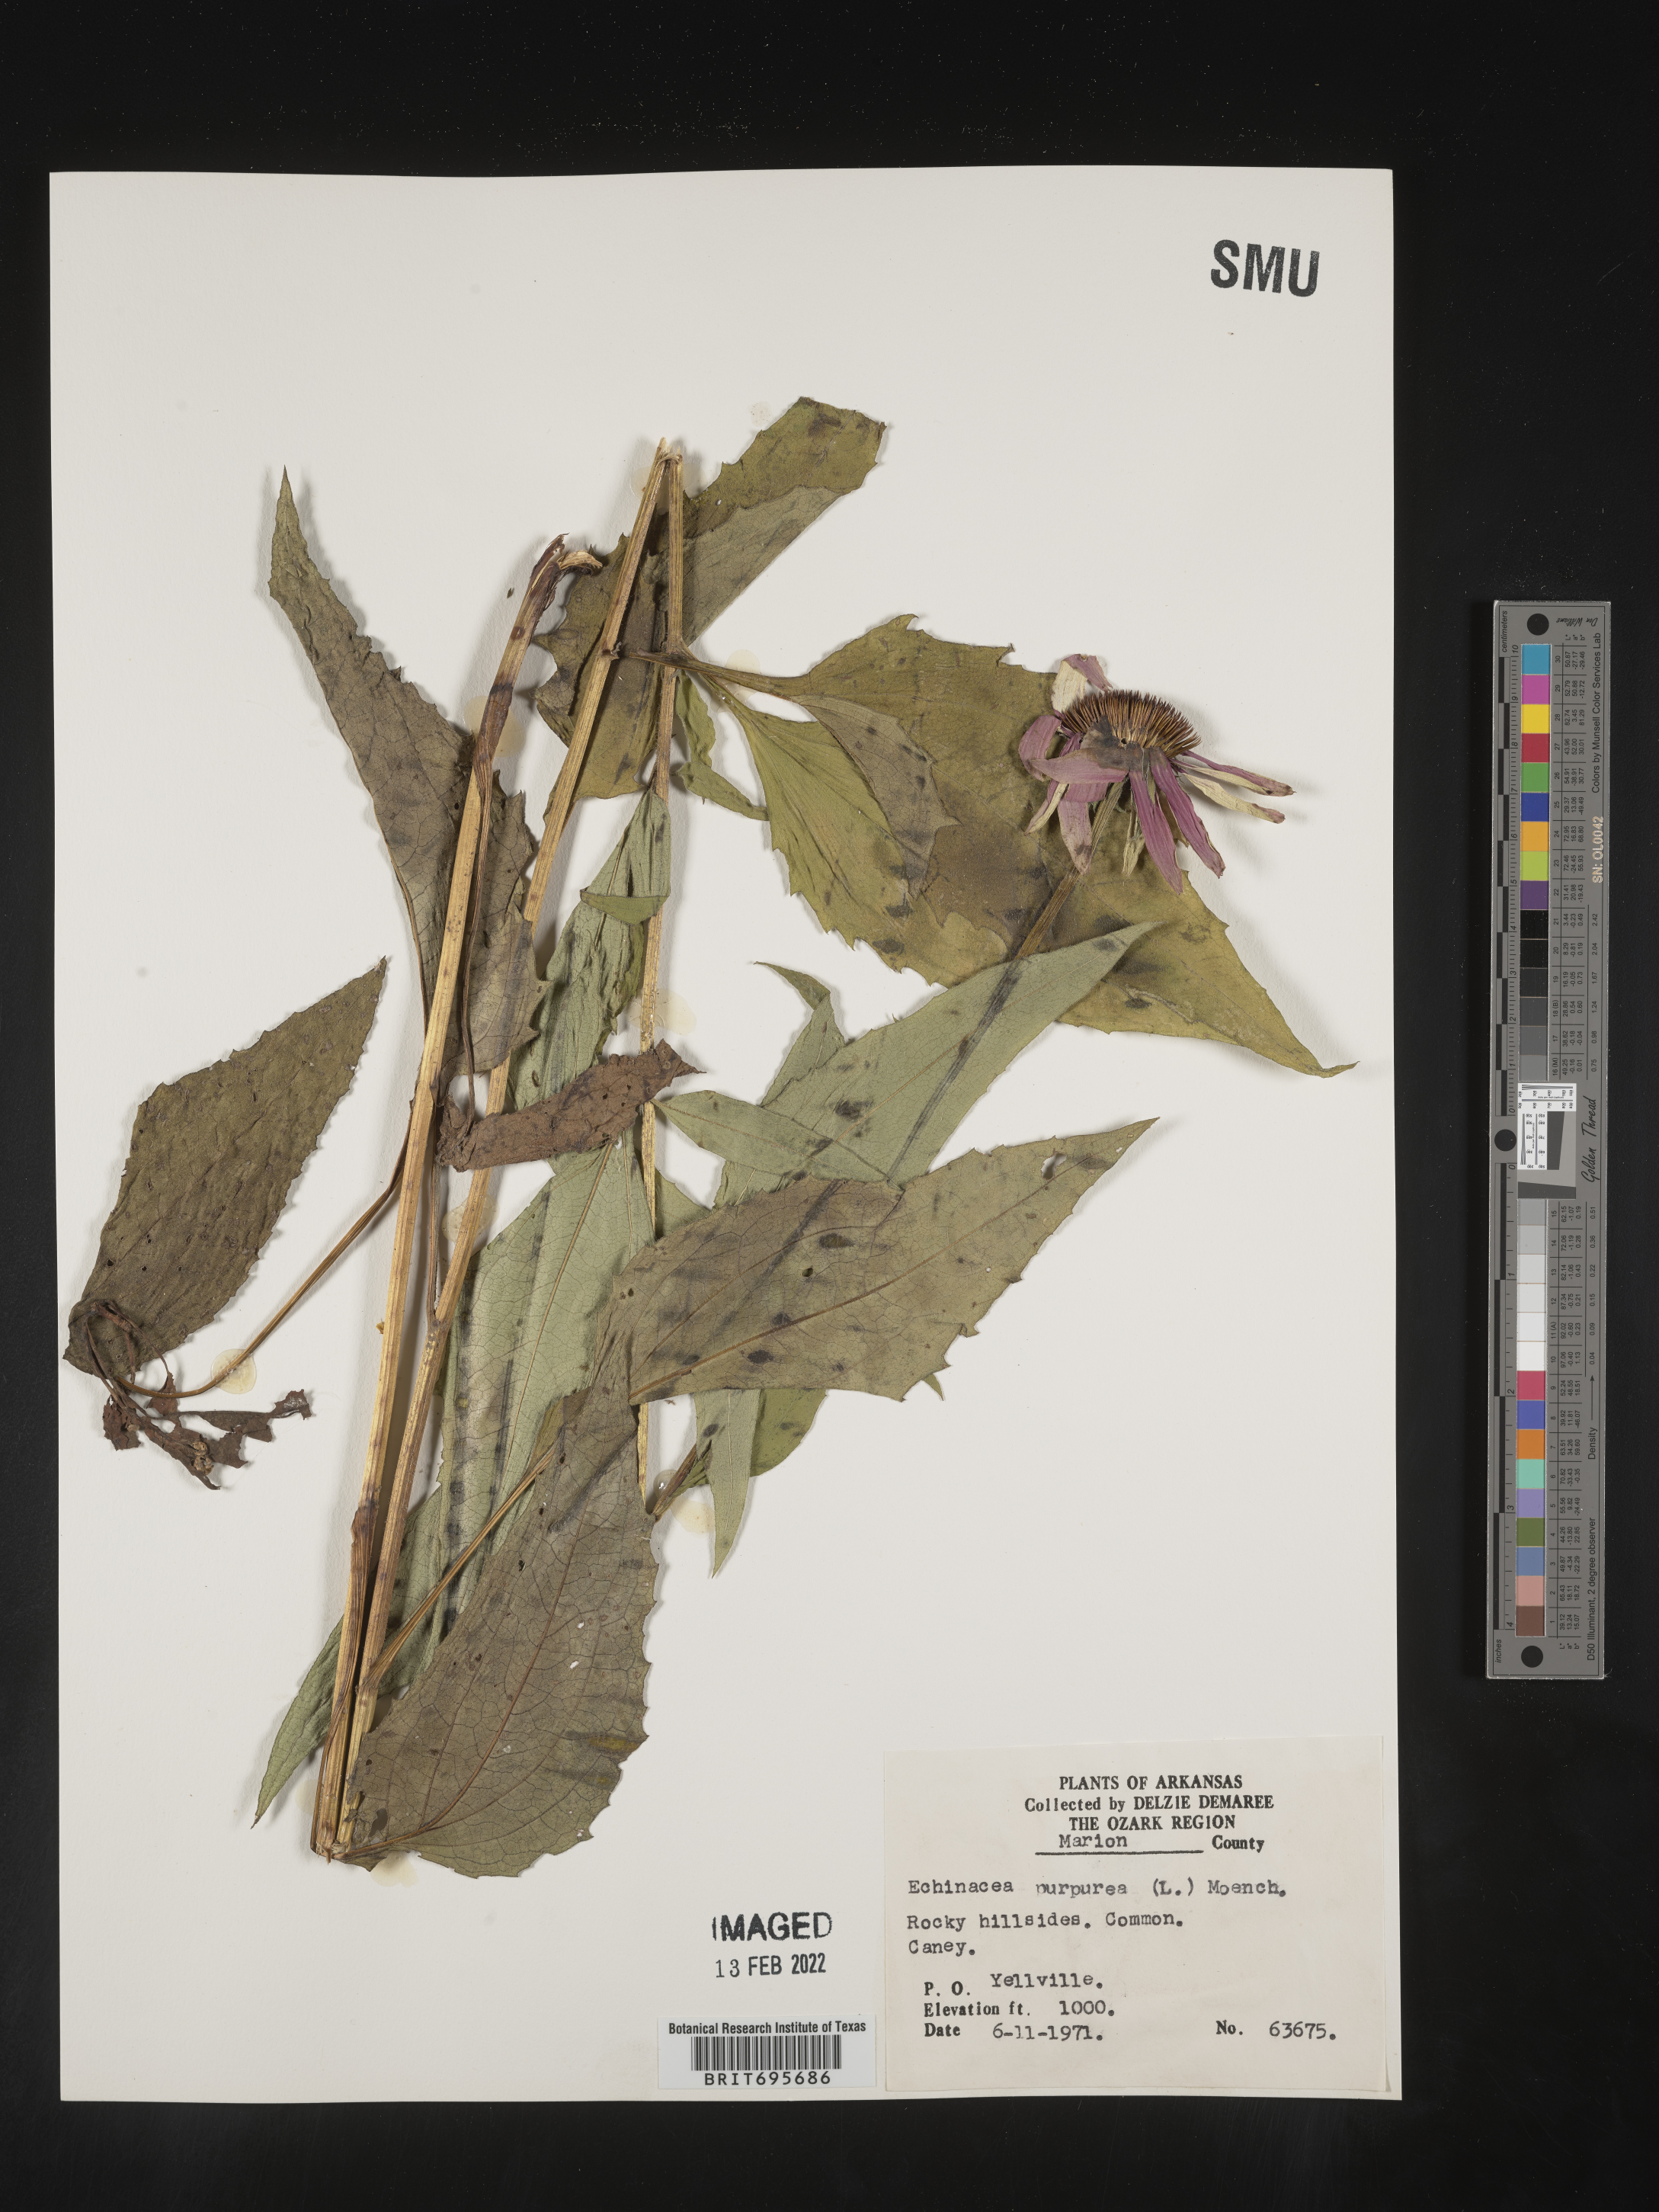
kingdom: Plantae
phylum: Tracheophyta
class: Magnoliopsida
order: Asterales
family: Asteraceae
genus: Echinacea
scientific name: Echinacea purpurea
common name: Broad-leaved purple coneflower
